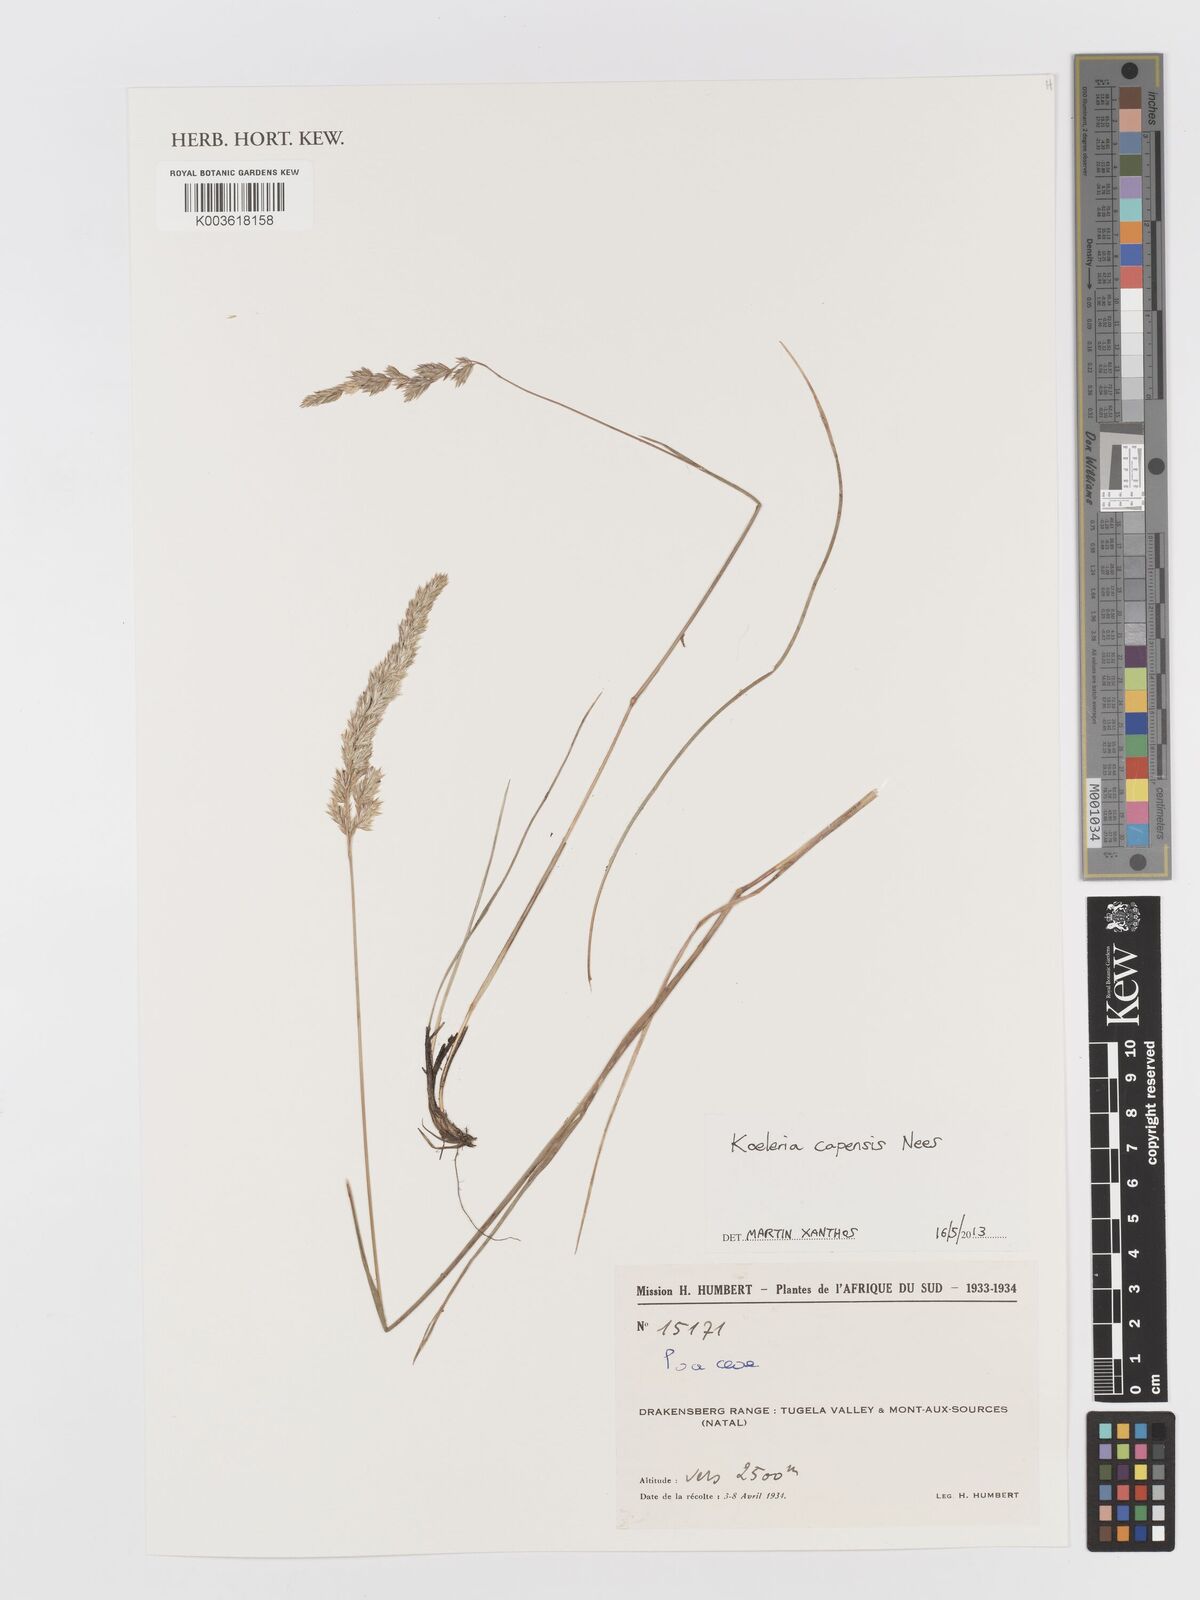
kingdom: Plantae
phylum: Tracheophyta
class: Liliopsida
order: Poales
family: Poaceae
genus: Koeleria
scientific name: Koeleria capensis
